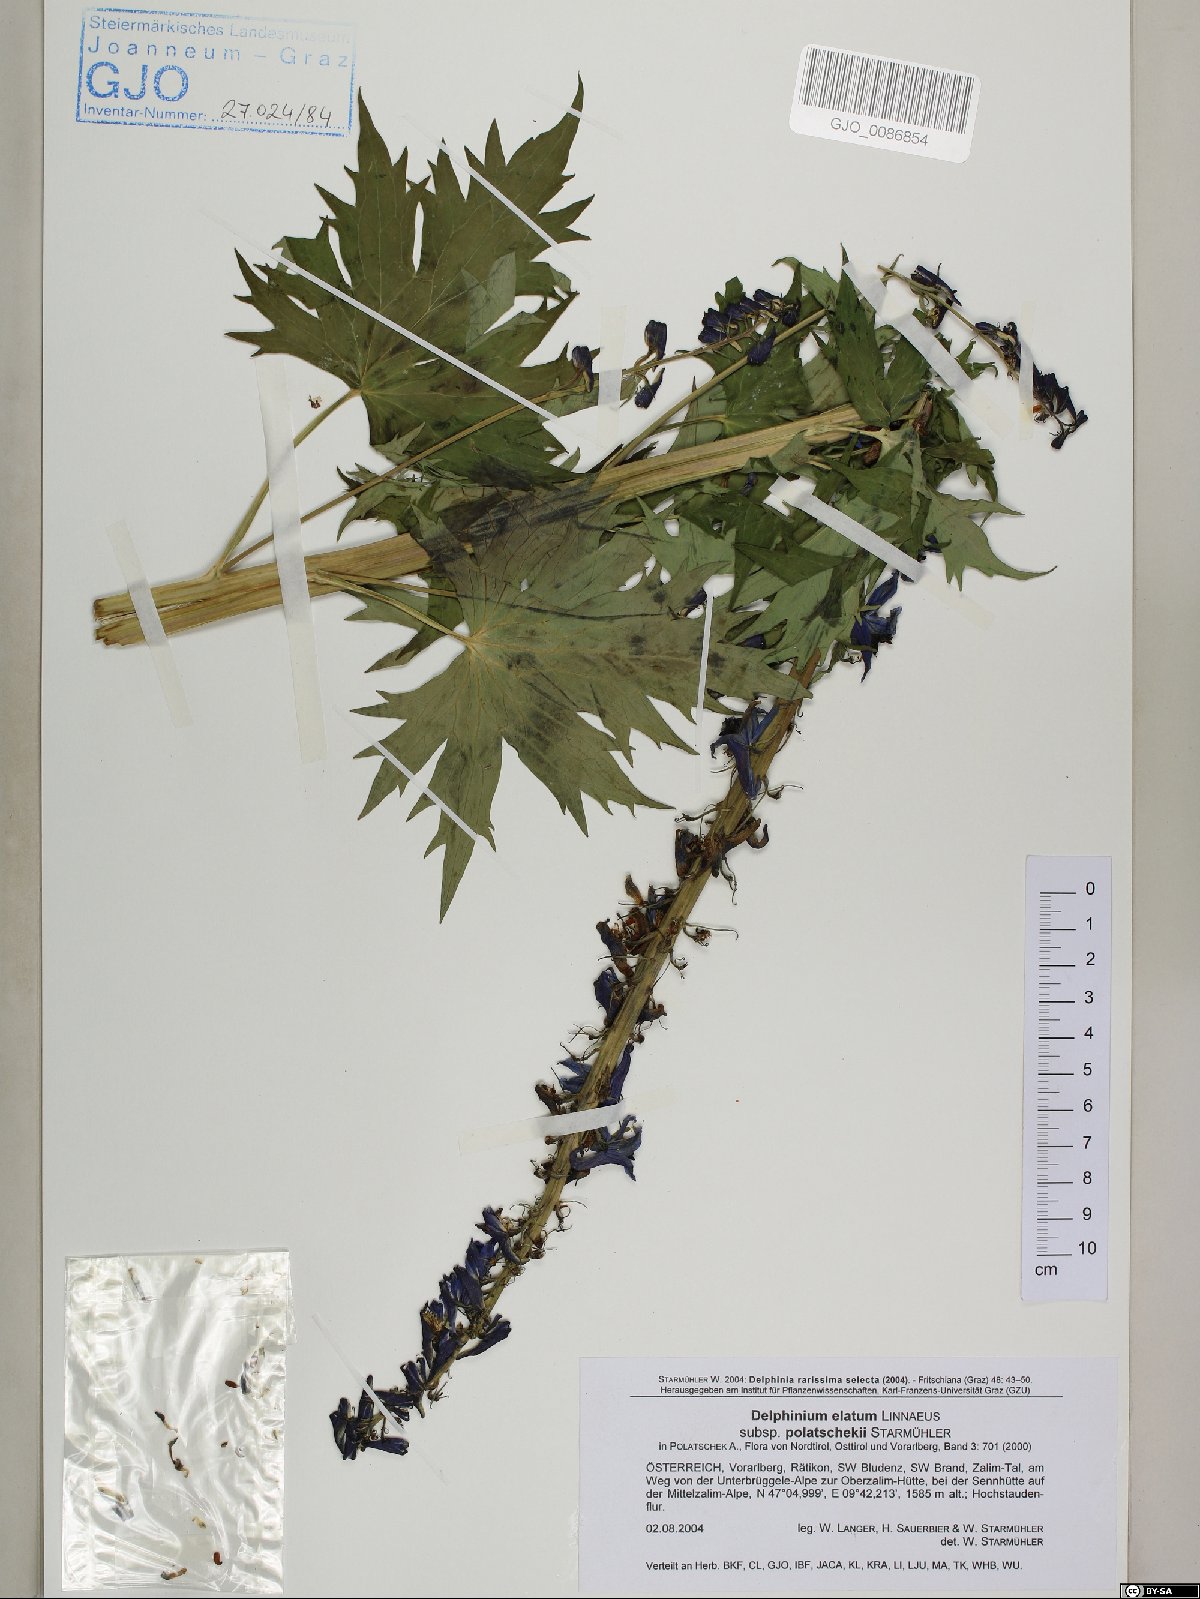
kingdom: Plantae
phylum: Tracheophyta
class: Magnoliopsida
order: Ranunculales
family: Ranunculaceae
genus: Delphinium
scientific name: Delphinium elatum
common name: Candle larkspur
